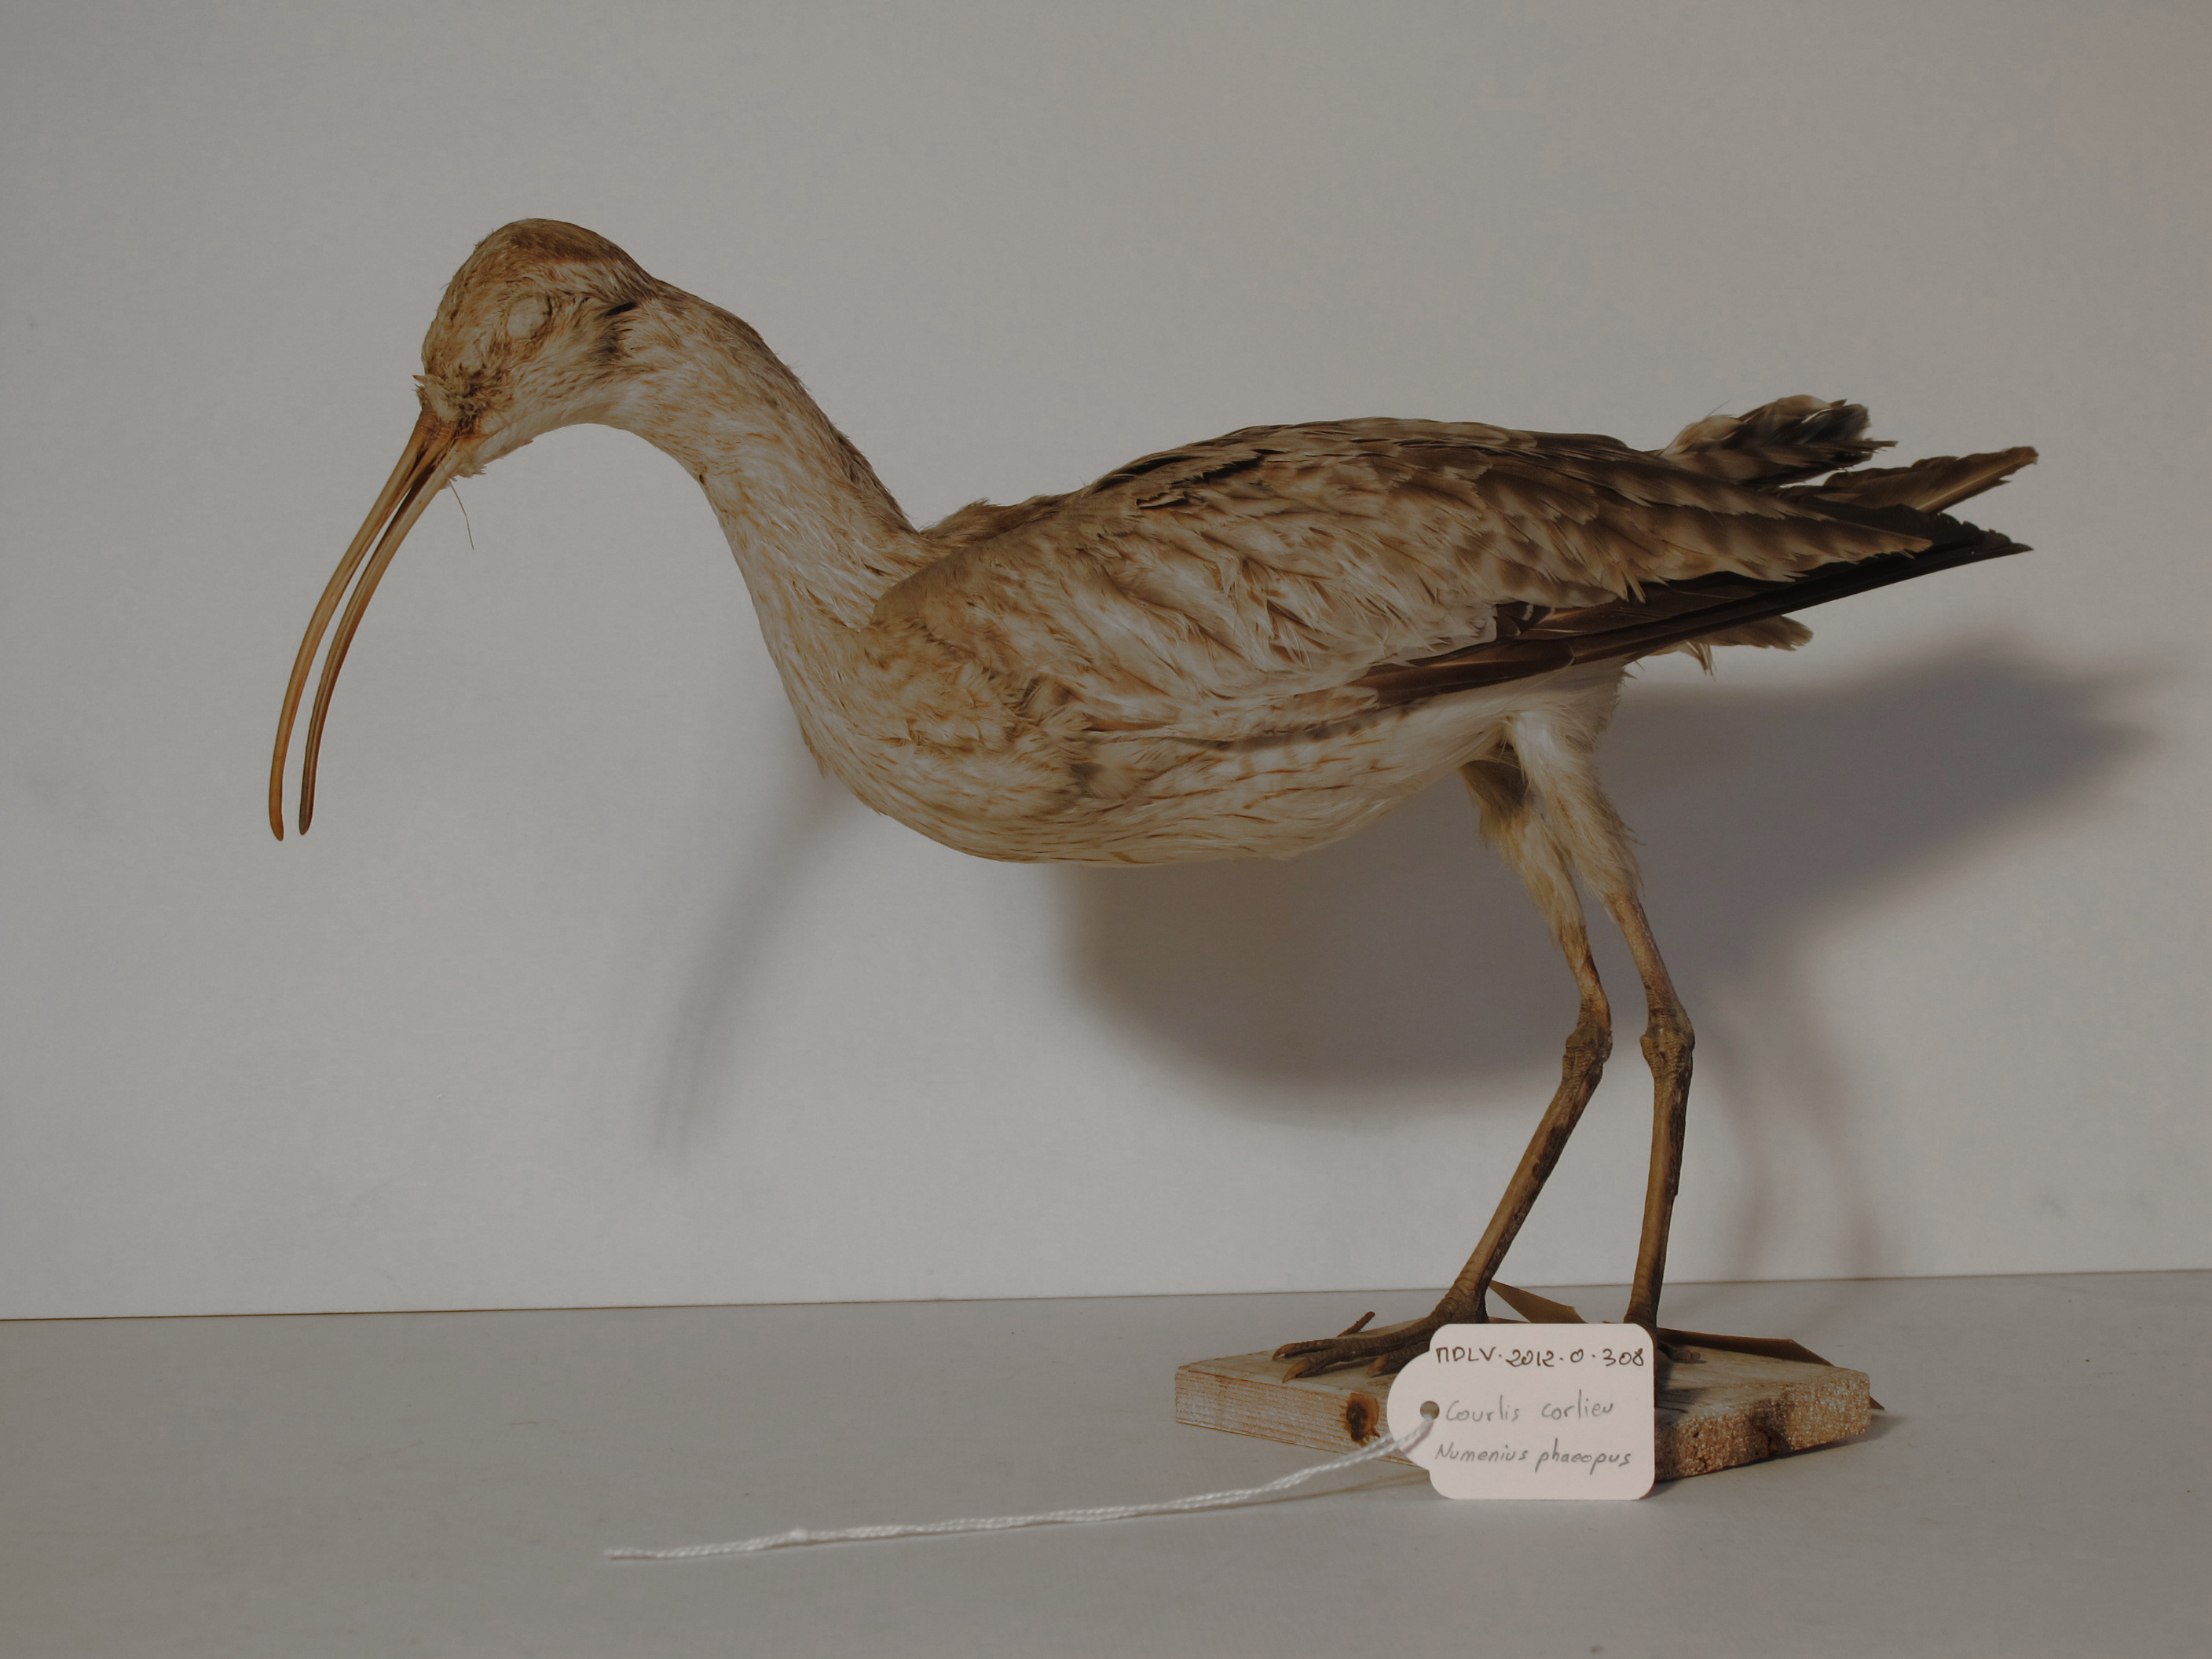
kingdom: Animalia
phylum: Chordata
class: Aves
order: Charadriiformes
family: Scolopacidae
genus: Numenius
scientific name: Numenius phaeopus
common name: Whimbrel
